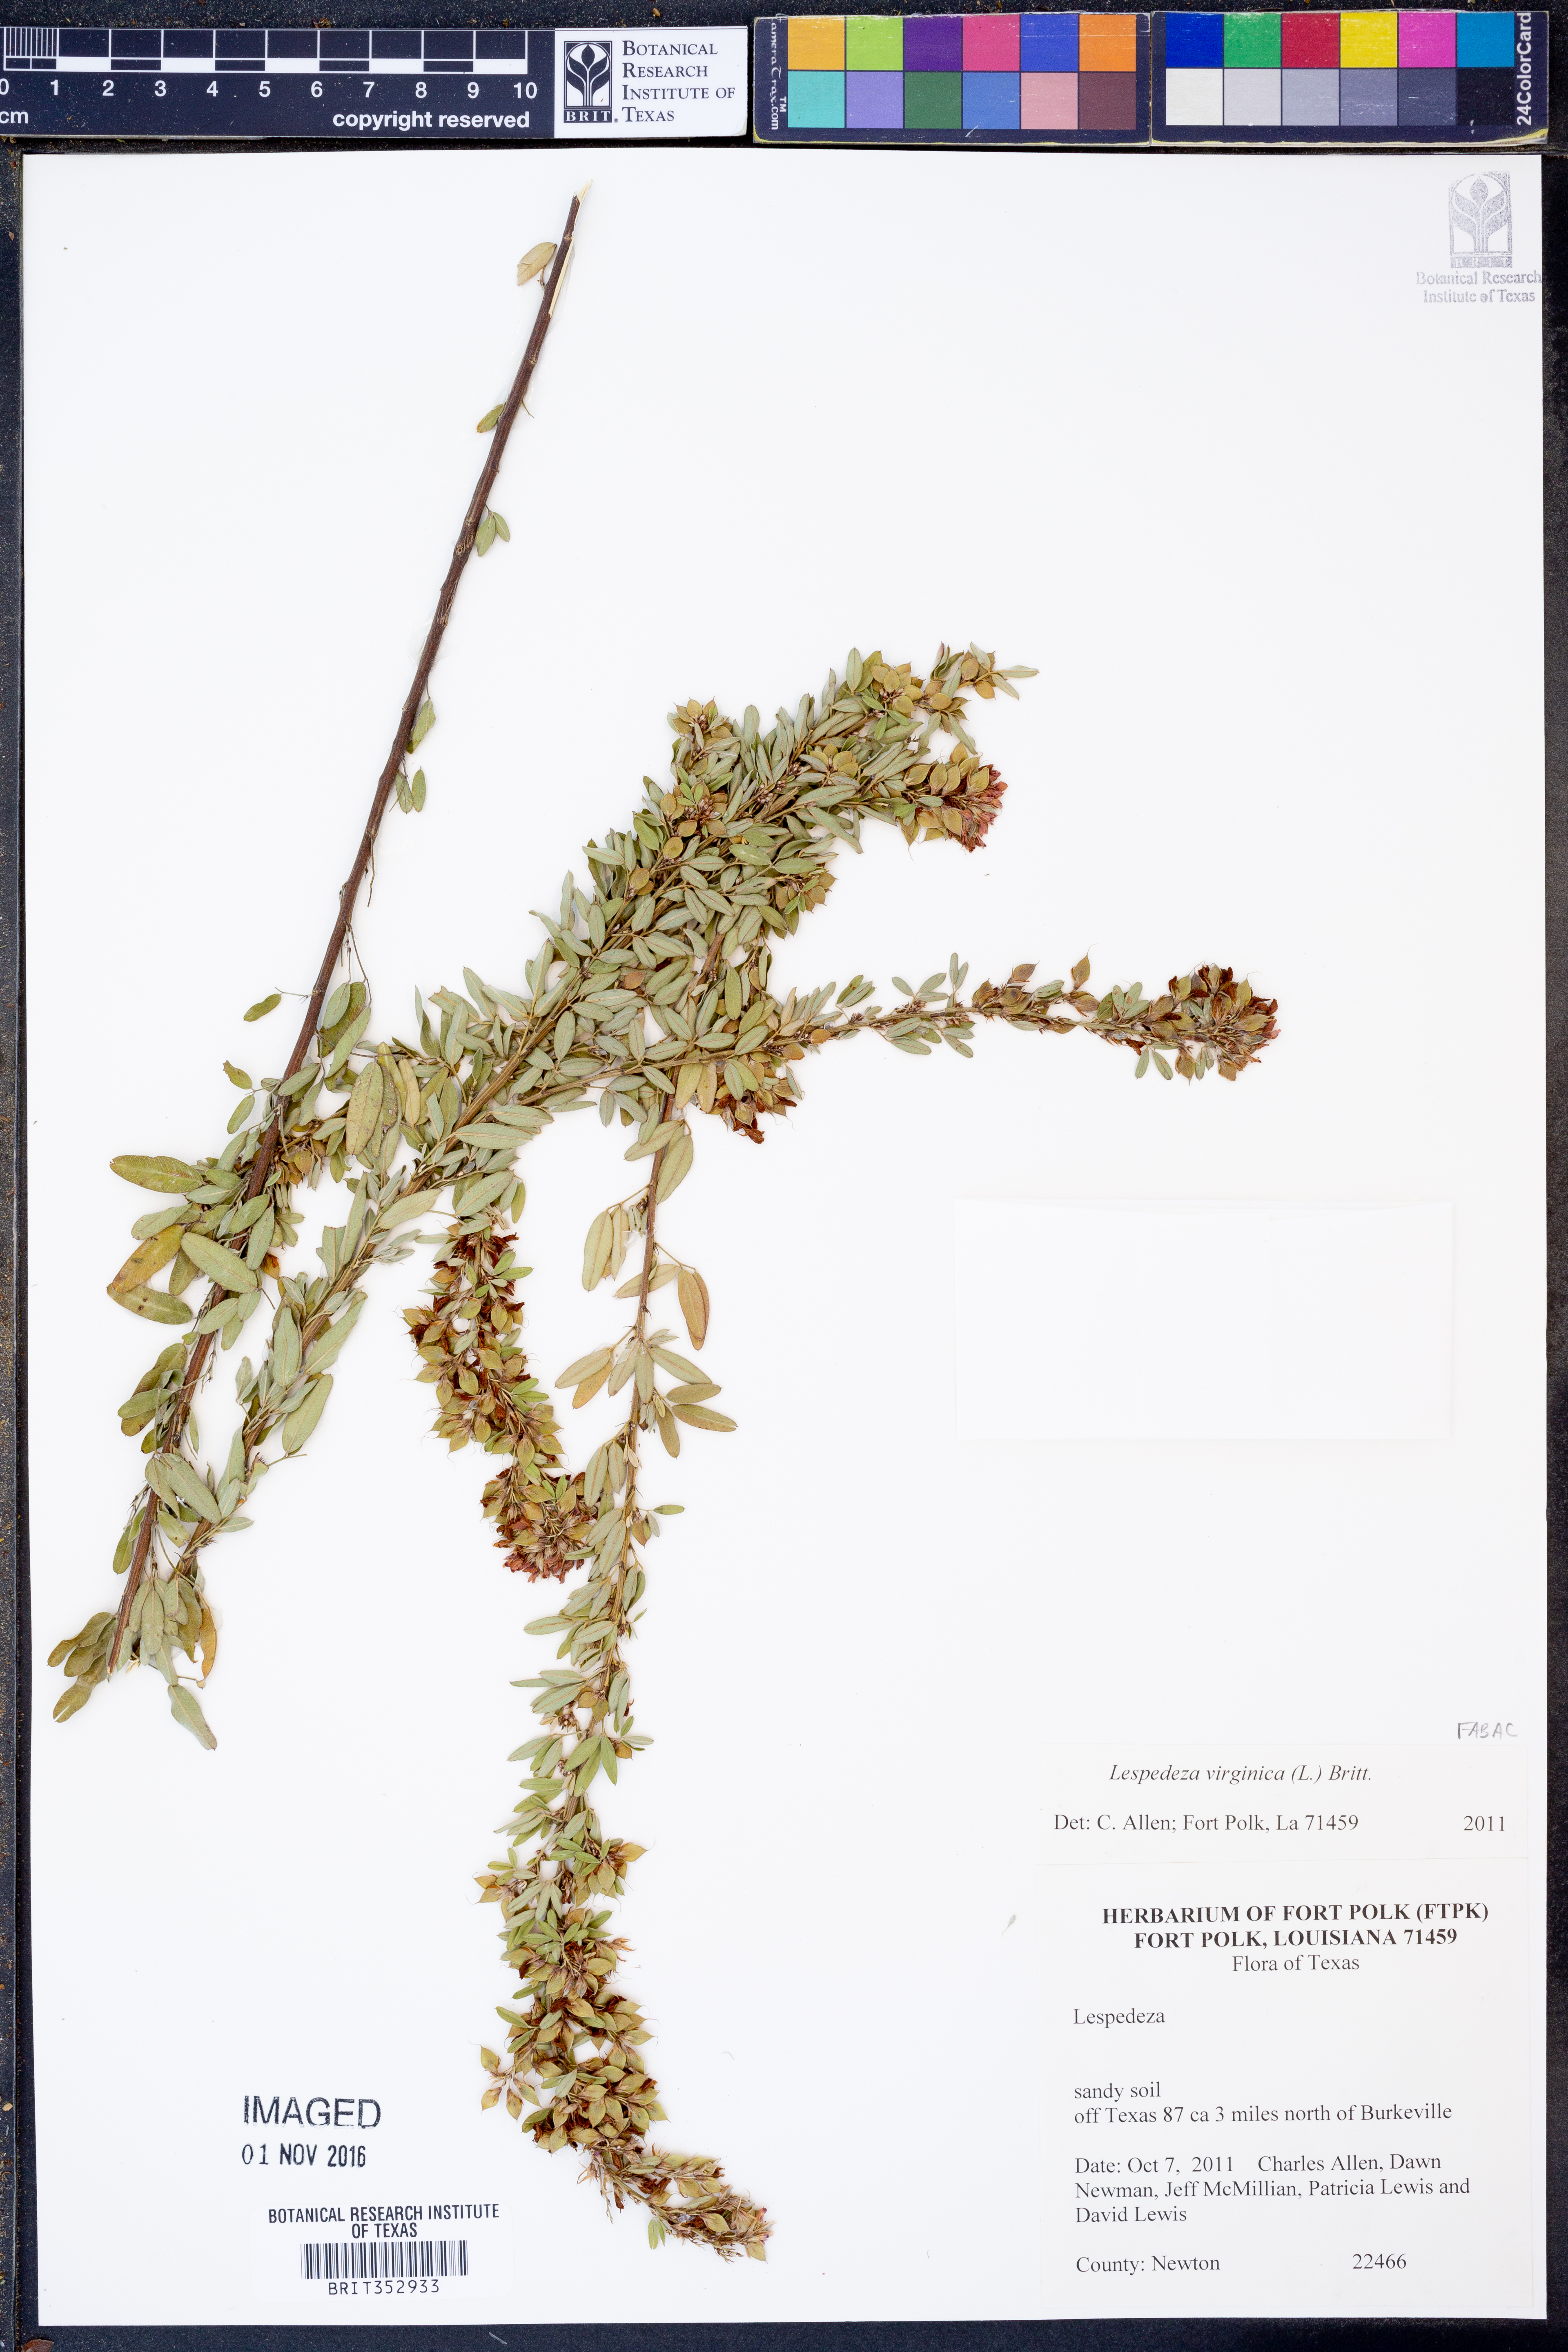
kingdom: Plantae
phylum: Tracheophyta
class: Magnoliopsida
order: Fabales
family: Fabaceae
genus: Lespedeza
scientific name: Lespedeza virginica
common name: Slender bush-clover
